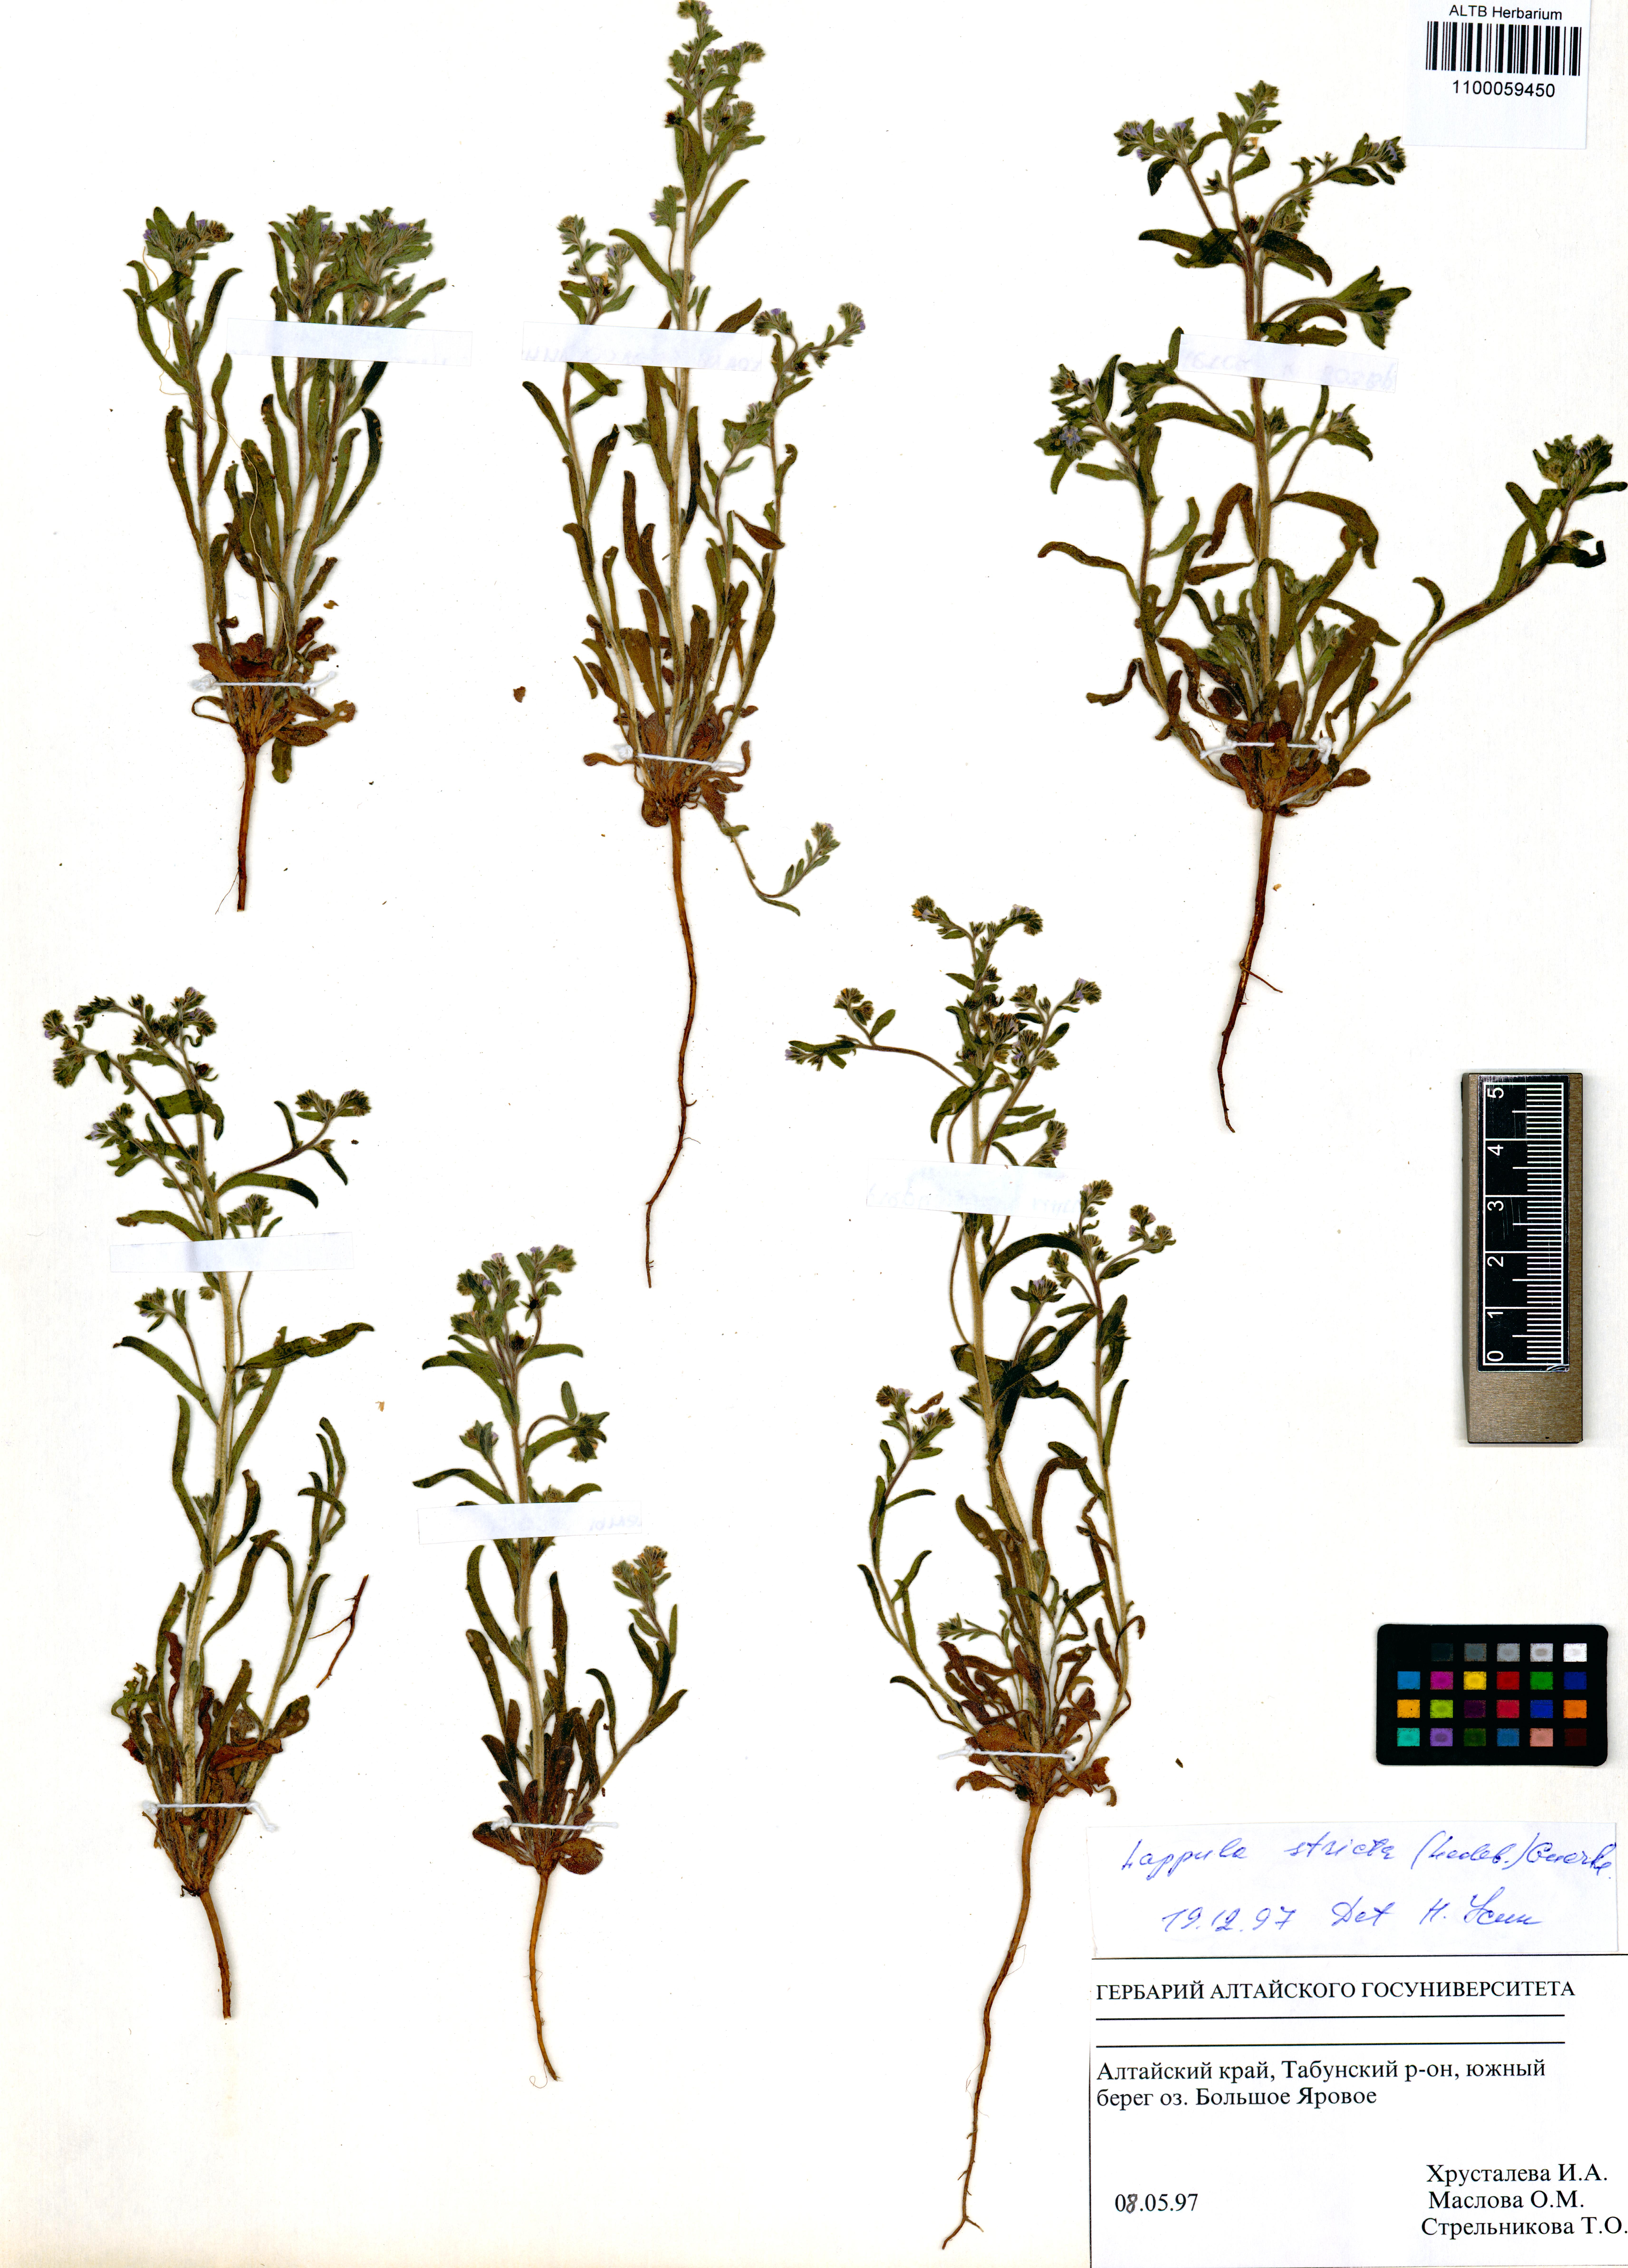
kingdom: Plantae
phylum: Tracheophyta
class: Magnoliopsida
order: Boraginales
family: Boraginaceae
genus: Lappula
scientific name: Lappula stricta
